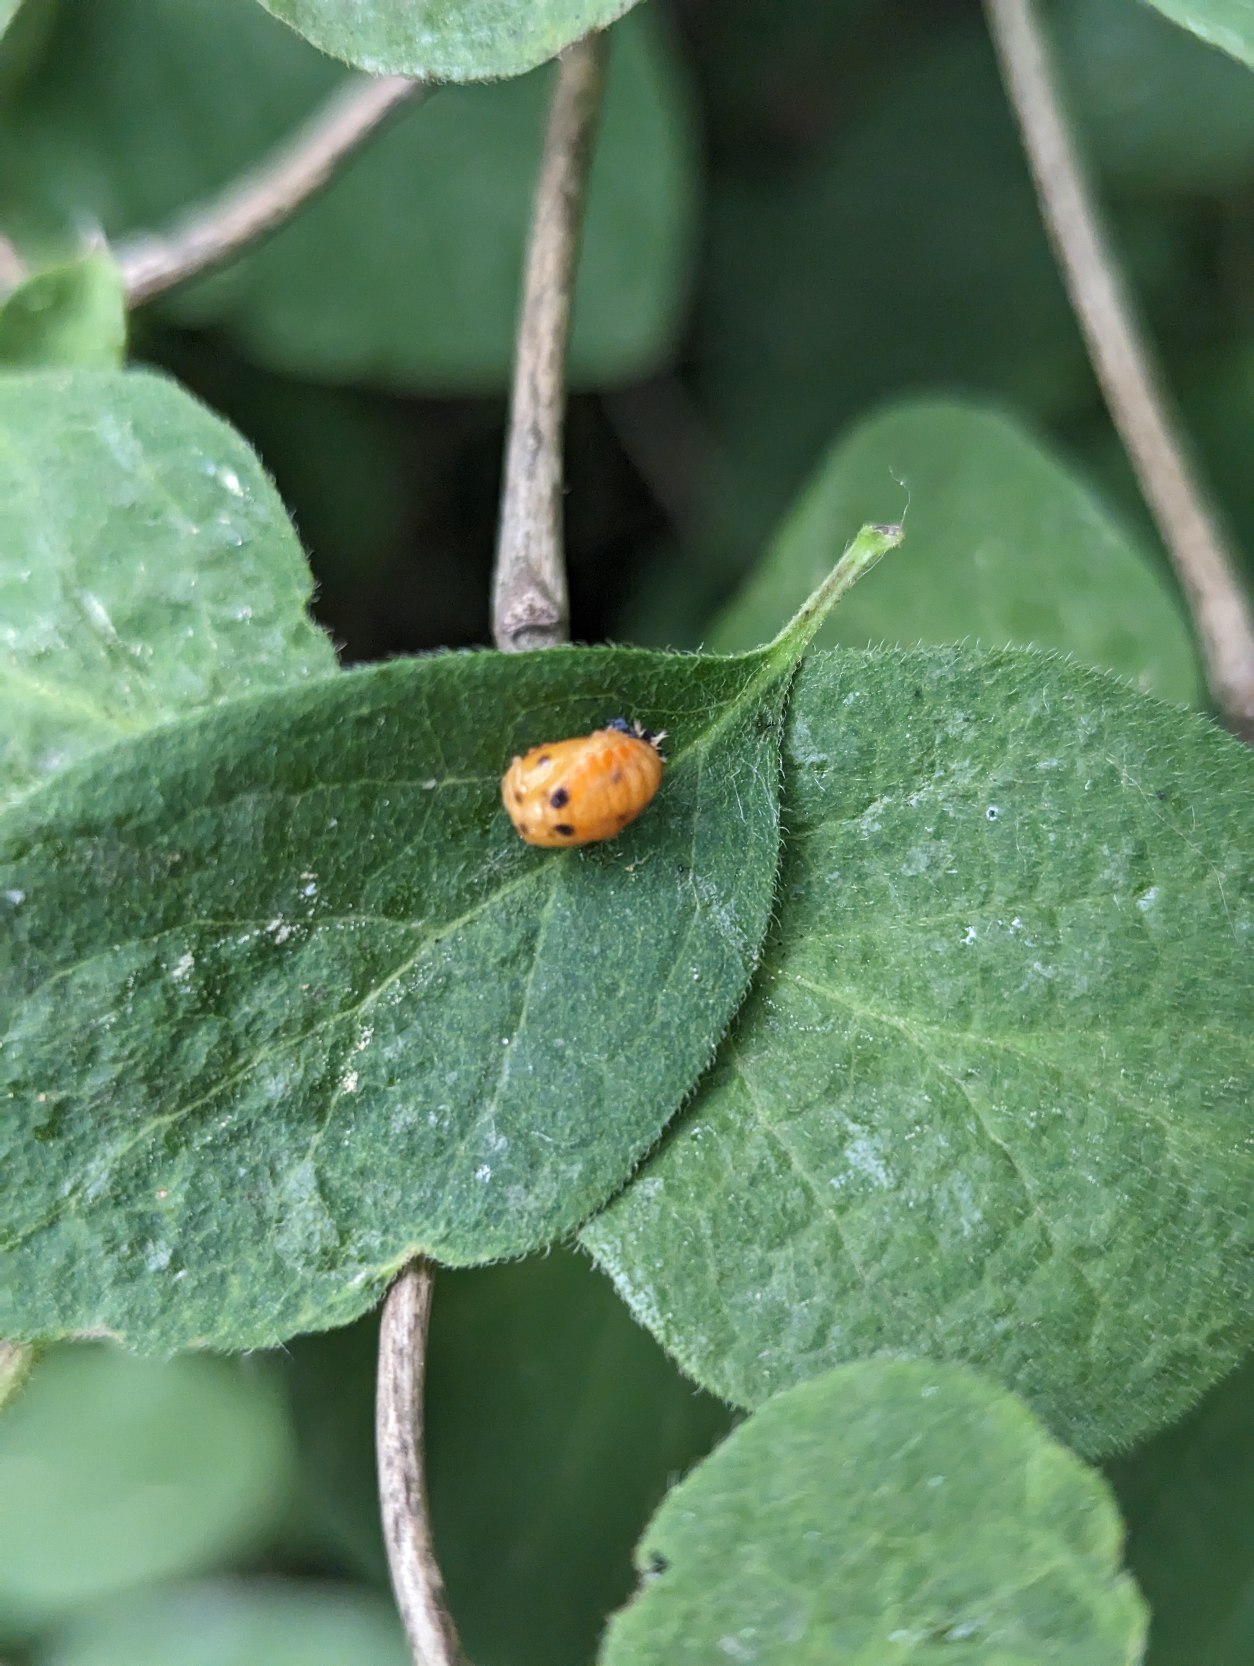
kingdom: Animalia
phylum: Arthropoda
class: Insecta
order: Coleoptera
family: Coccinellidae
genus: Coccinella
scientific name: Coccinella septempunctata
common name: Syvplettet mariehøne
